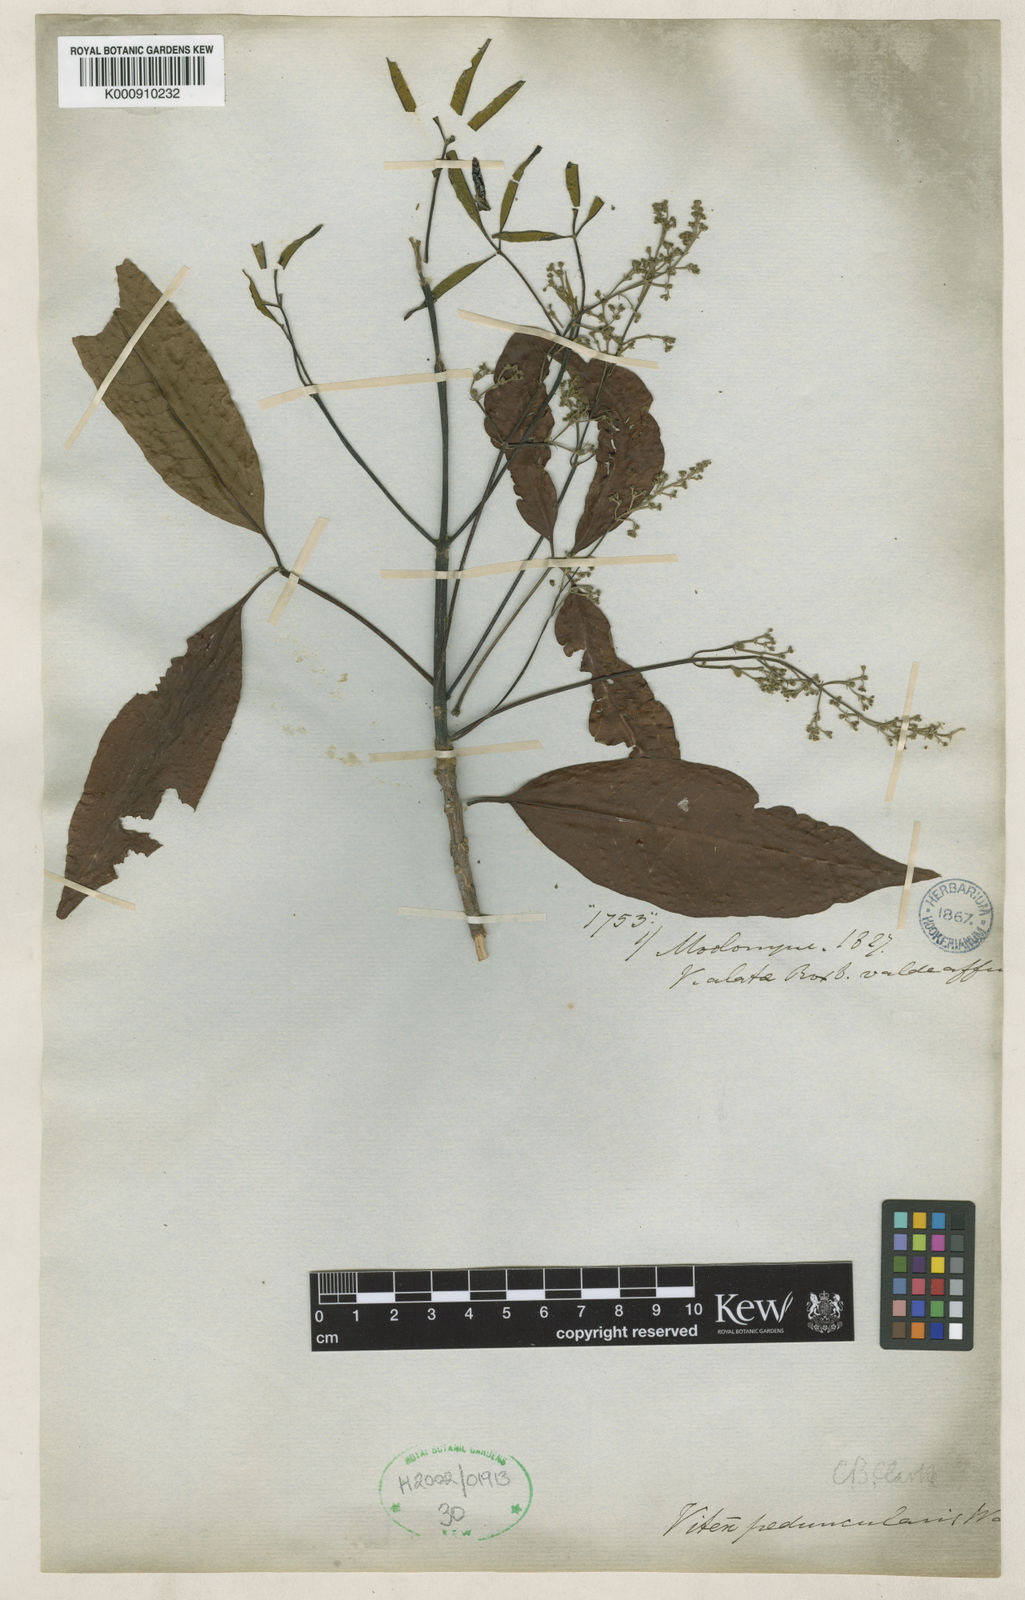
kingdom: Plantae
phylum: Tracheophyta
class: Magnoliopsida
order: Lamiales
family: Lamiaceae
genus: Vitex
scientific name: Vitex
